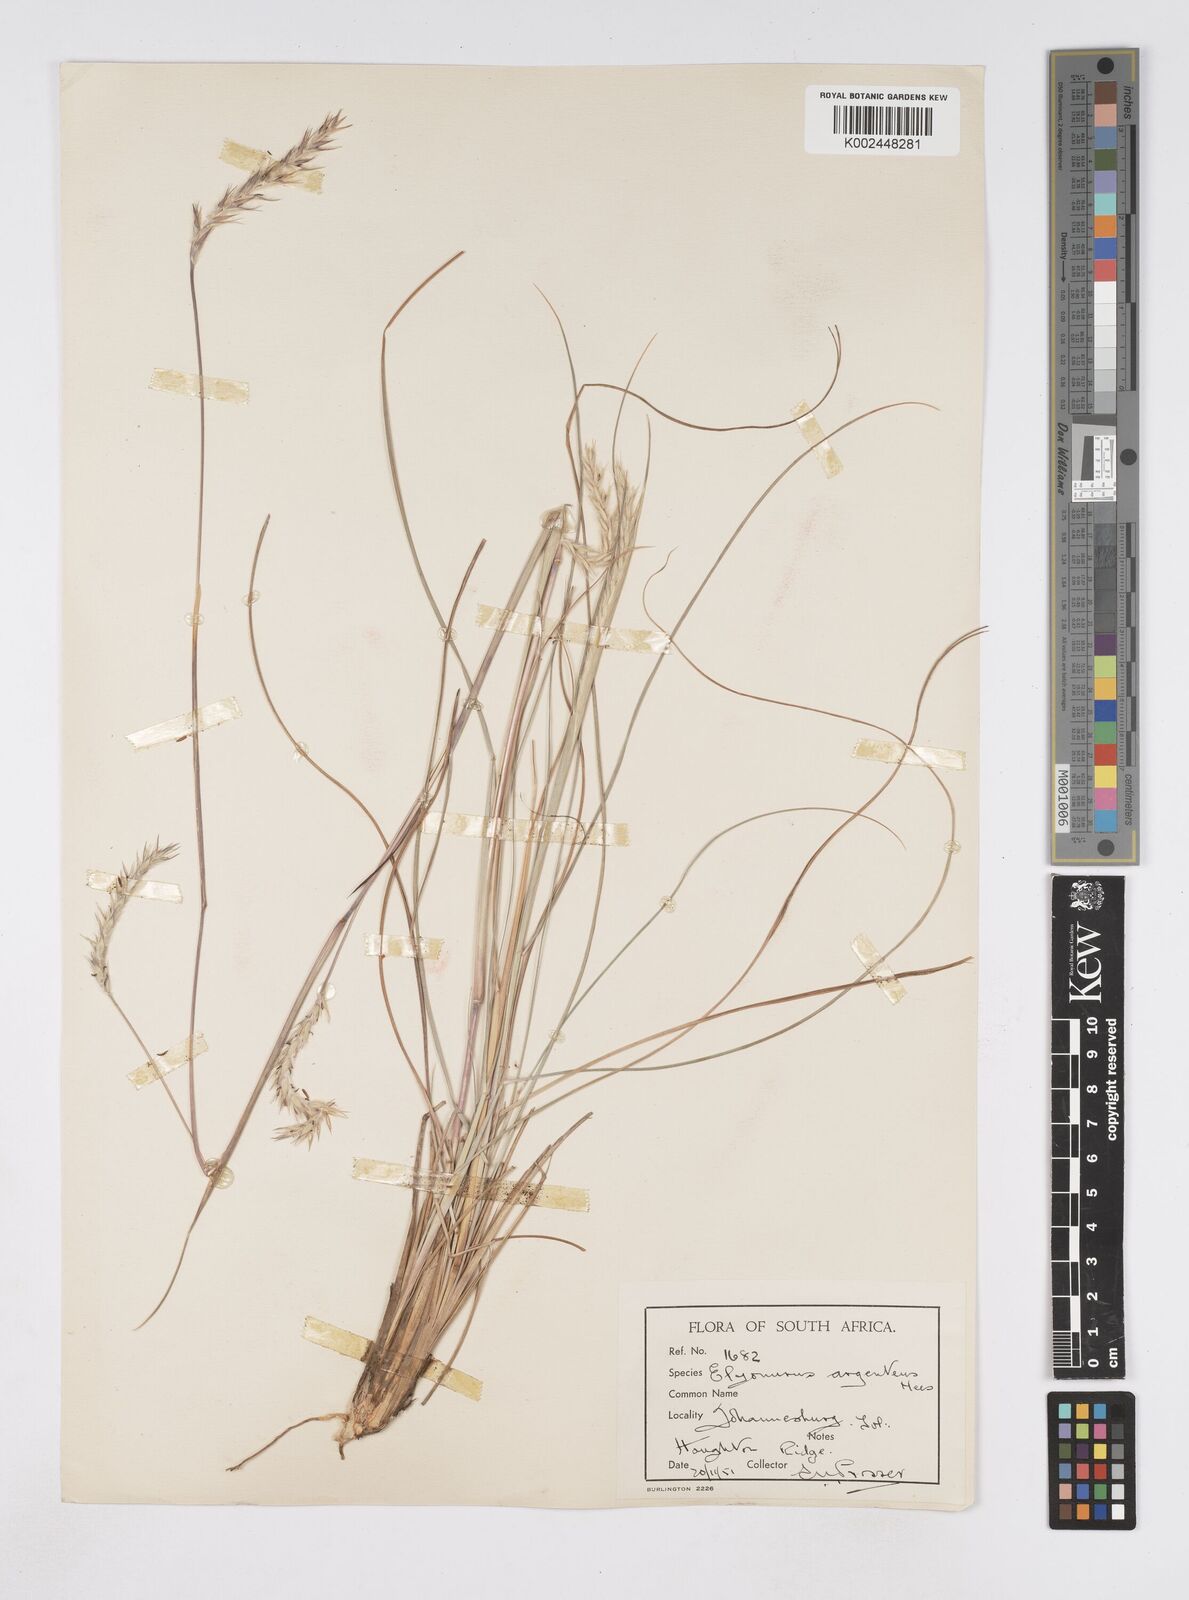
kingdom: Plantae
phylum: Tracheophyta
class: Liliopsida
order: Poales
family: Poaceae
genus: Elionurus
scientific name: Elionurus muticus
